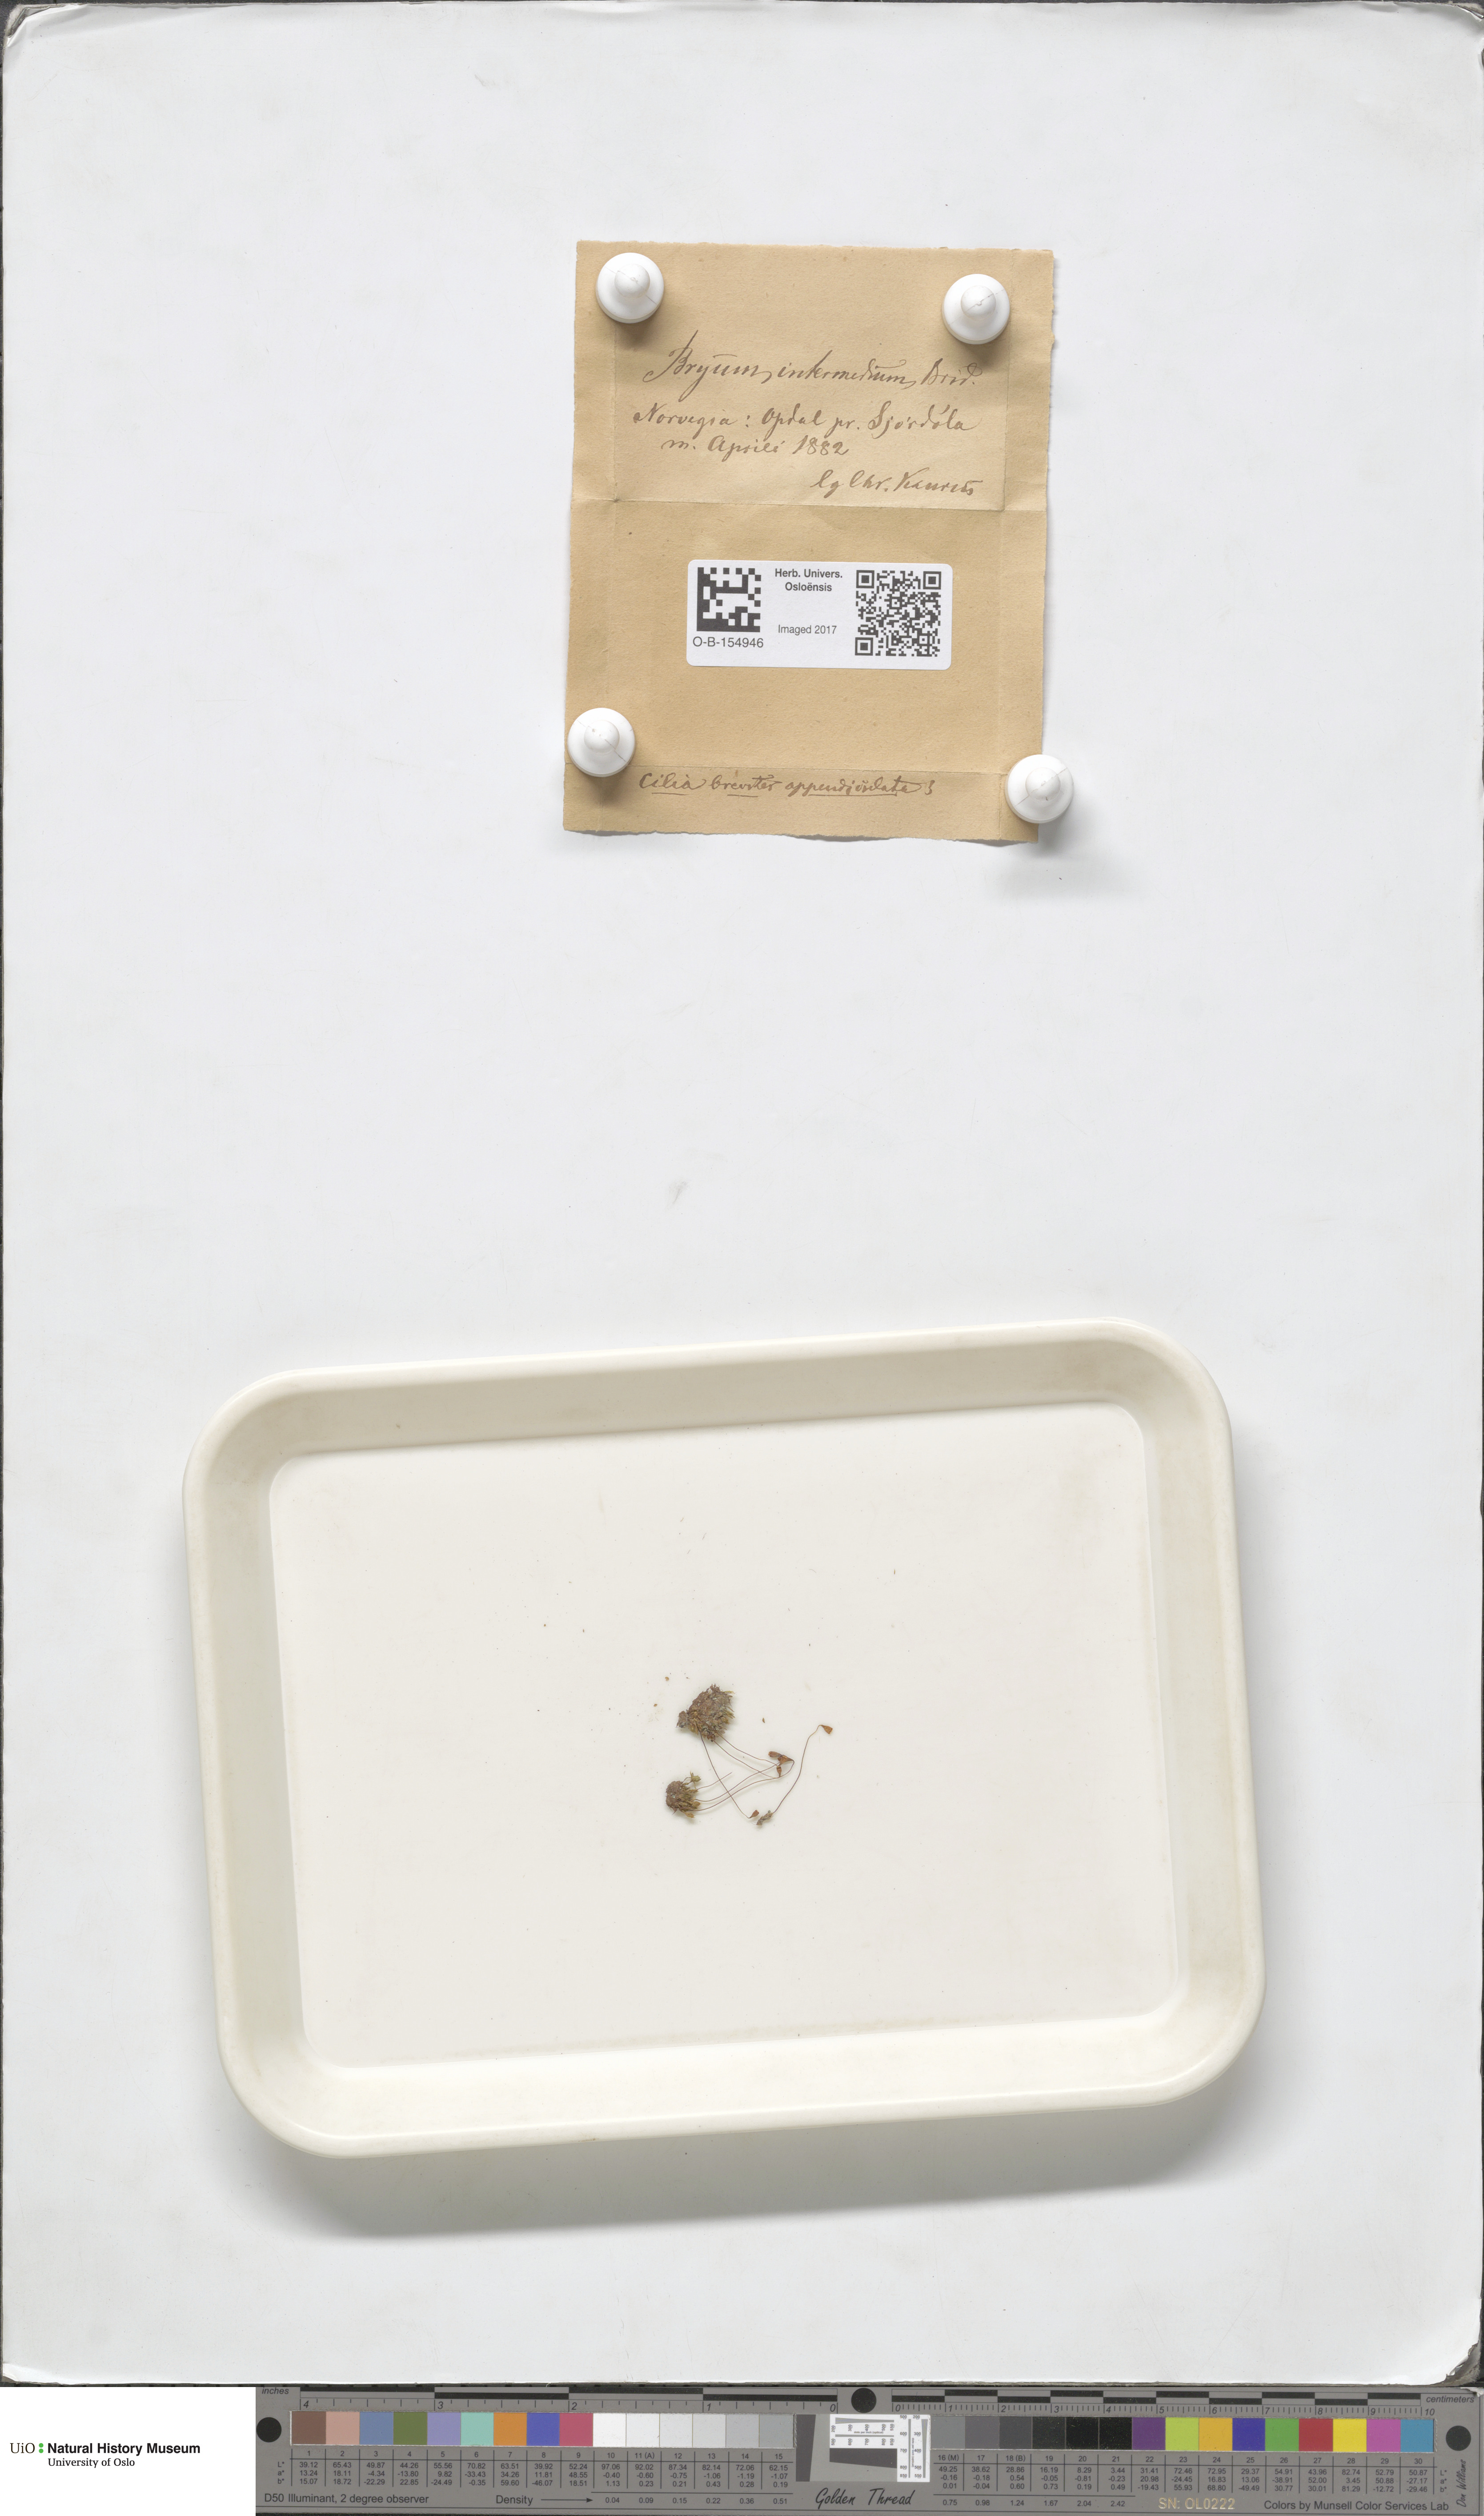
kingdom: Plantae
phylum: Bryophyta
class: Bryopsida
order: Bryales
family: Bryaceae
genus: Ptychostomum
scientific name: Ptychostomum intermedium
